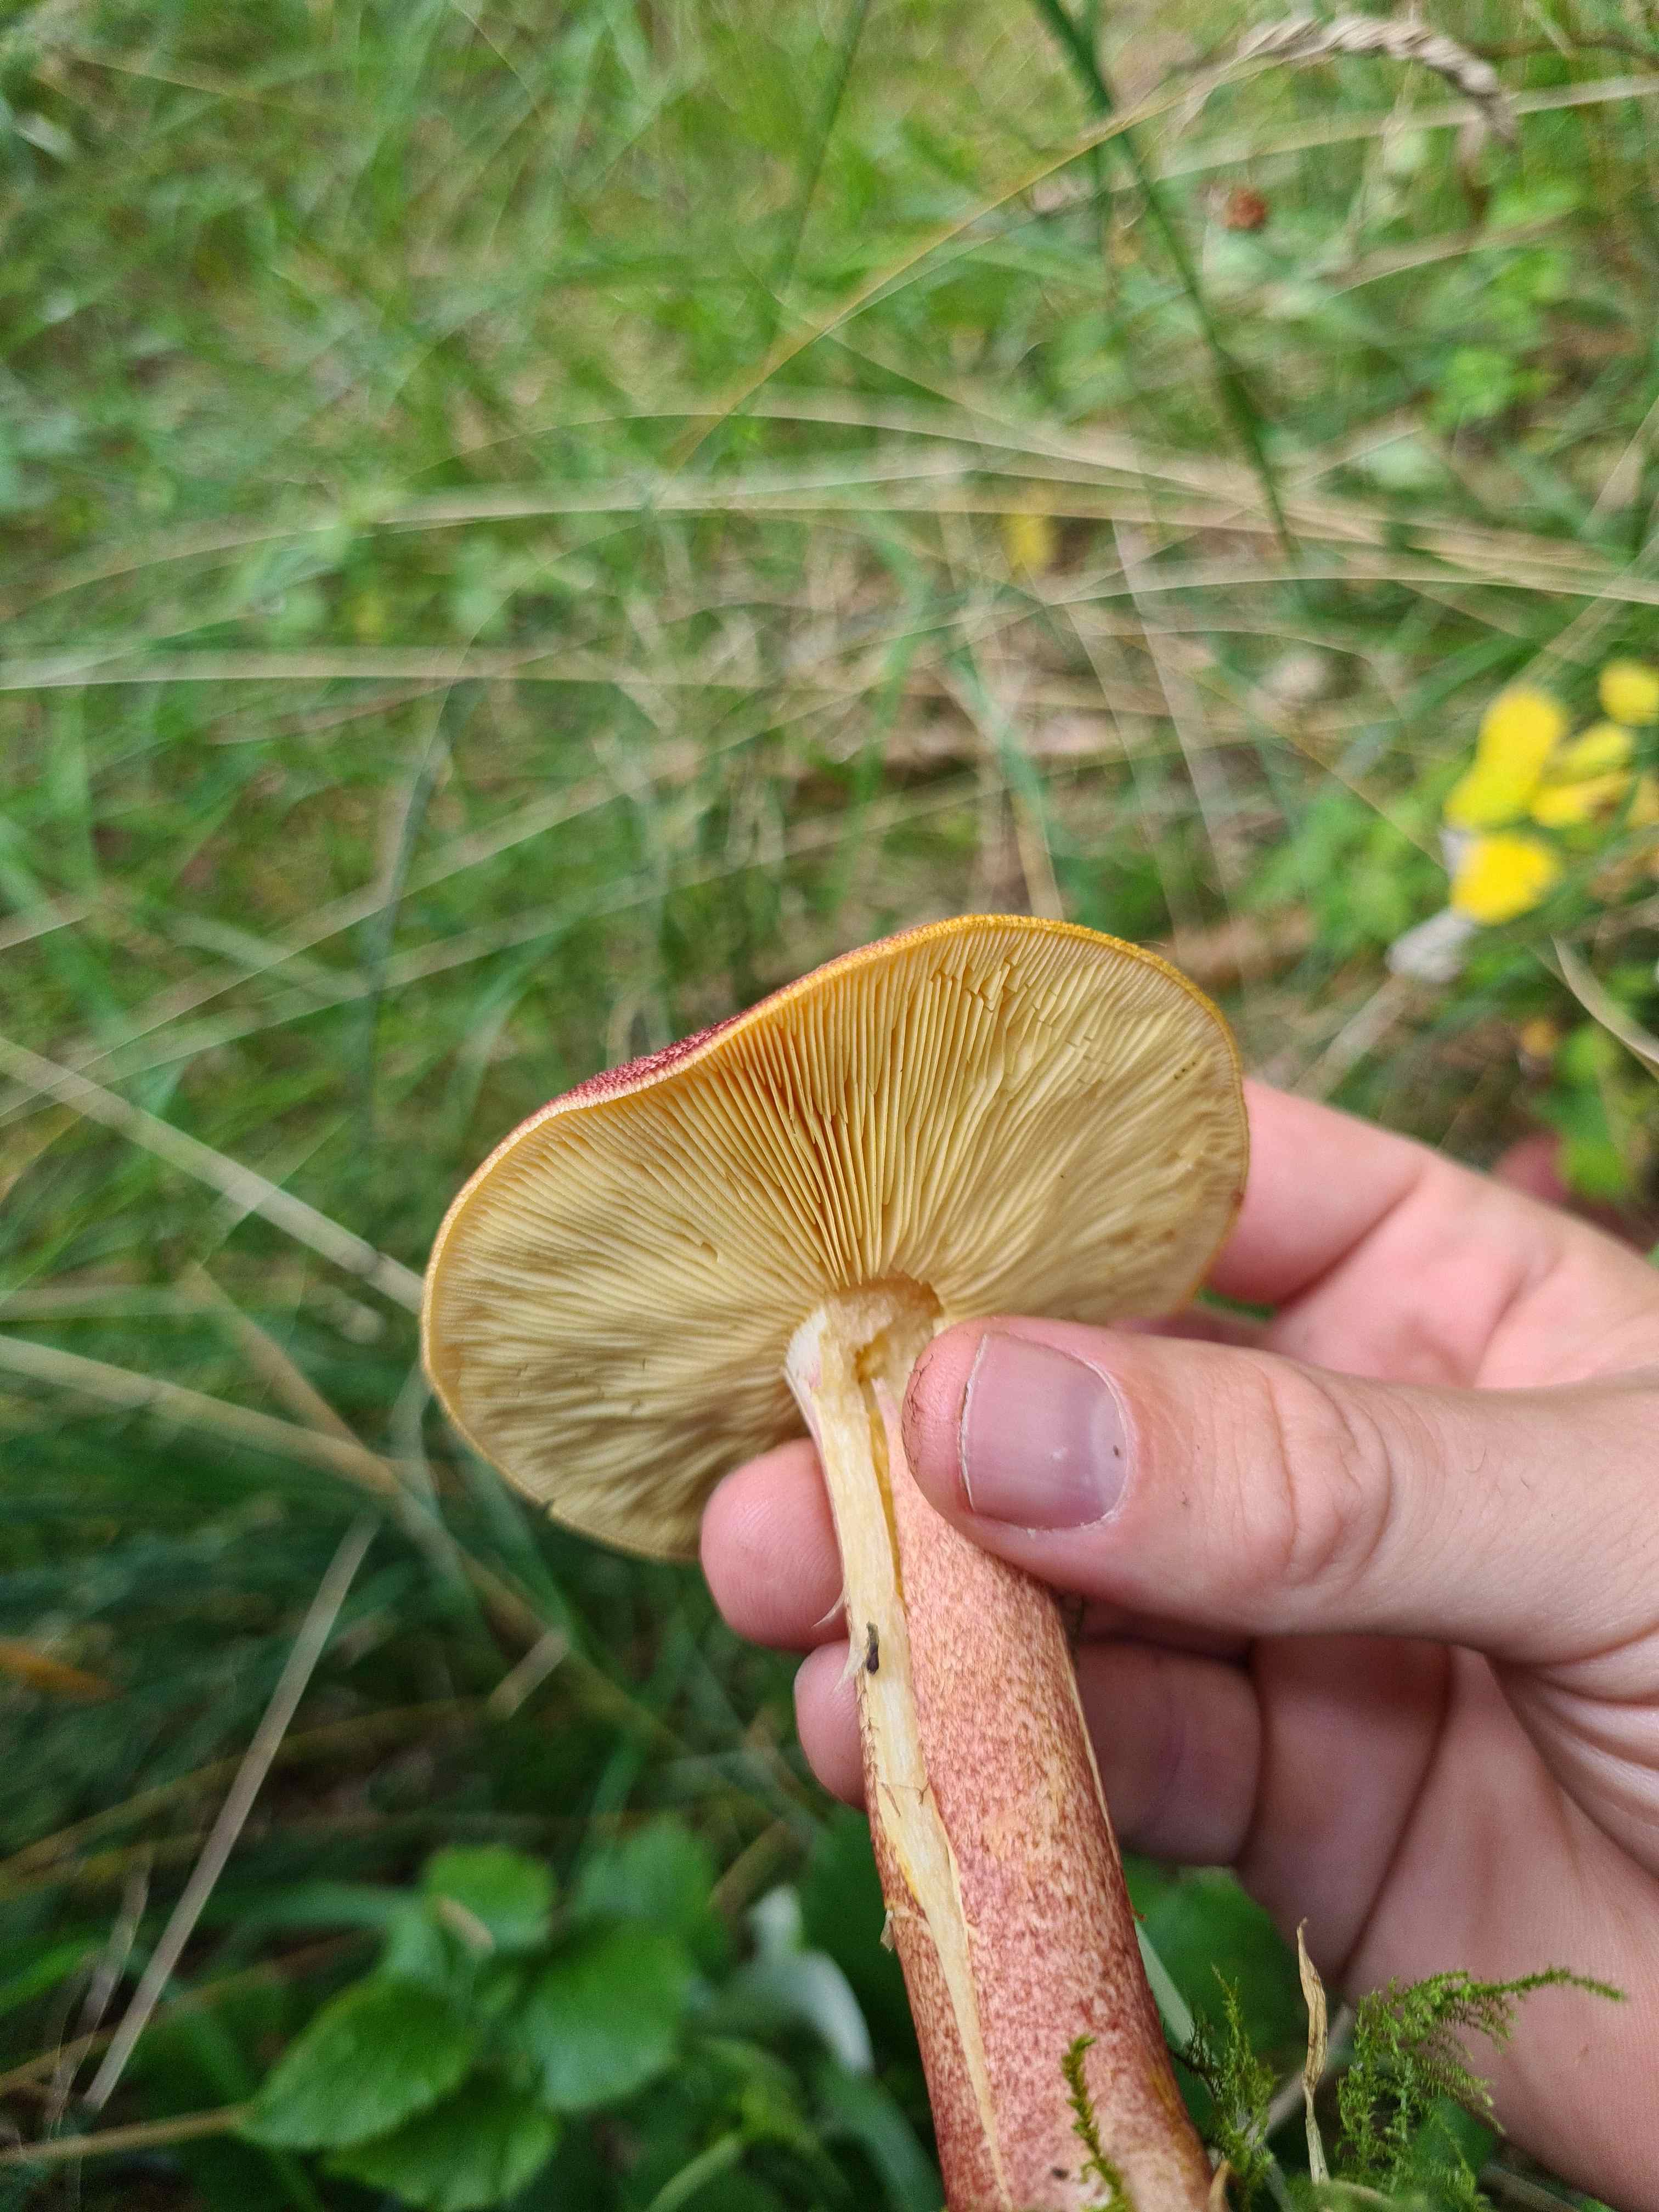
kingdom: Fungi
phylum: Basidiomycota
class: Agaricomycetes
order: Agaricales
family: Tricholomataceae
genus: Tricholomopsis
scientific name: Tricholomopsis rutilans
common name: purpur-væbnerhat
